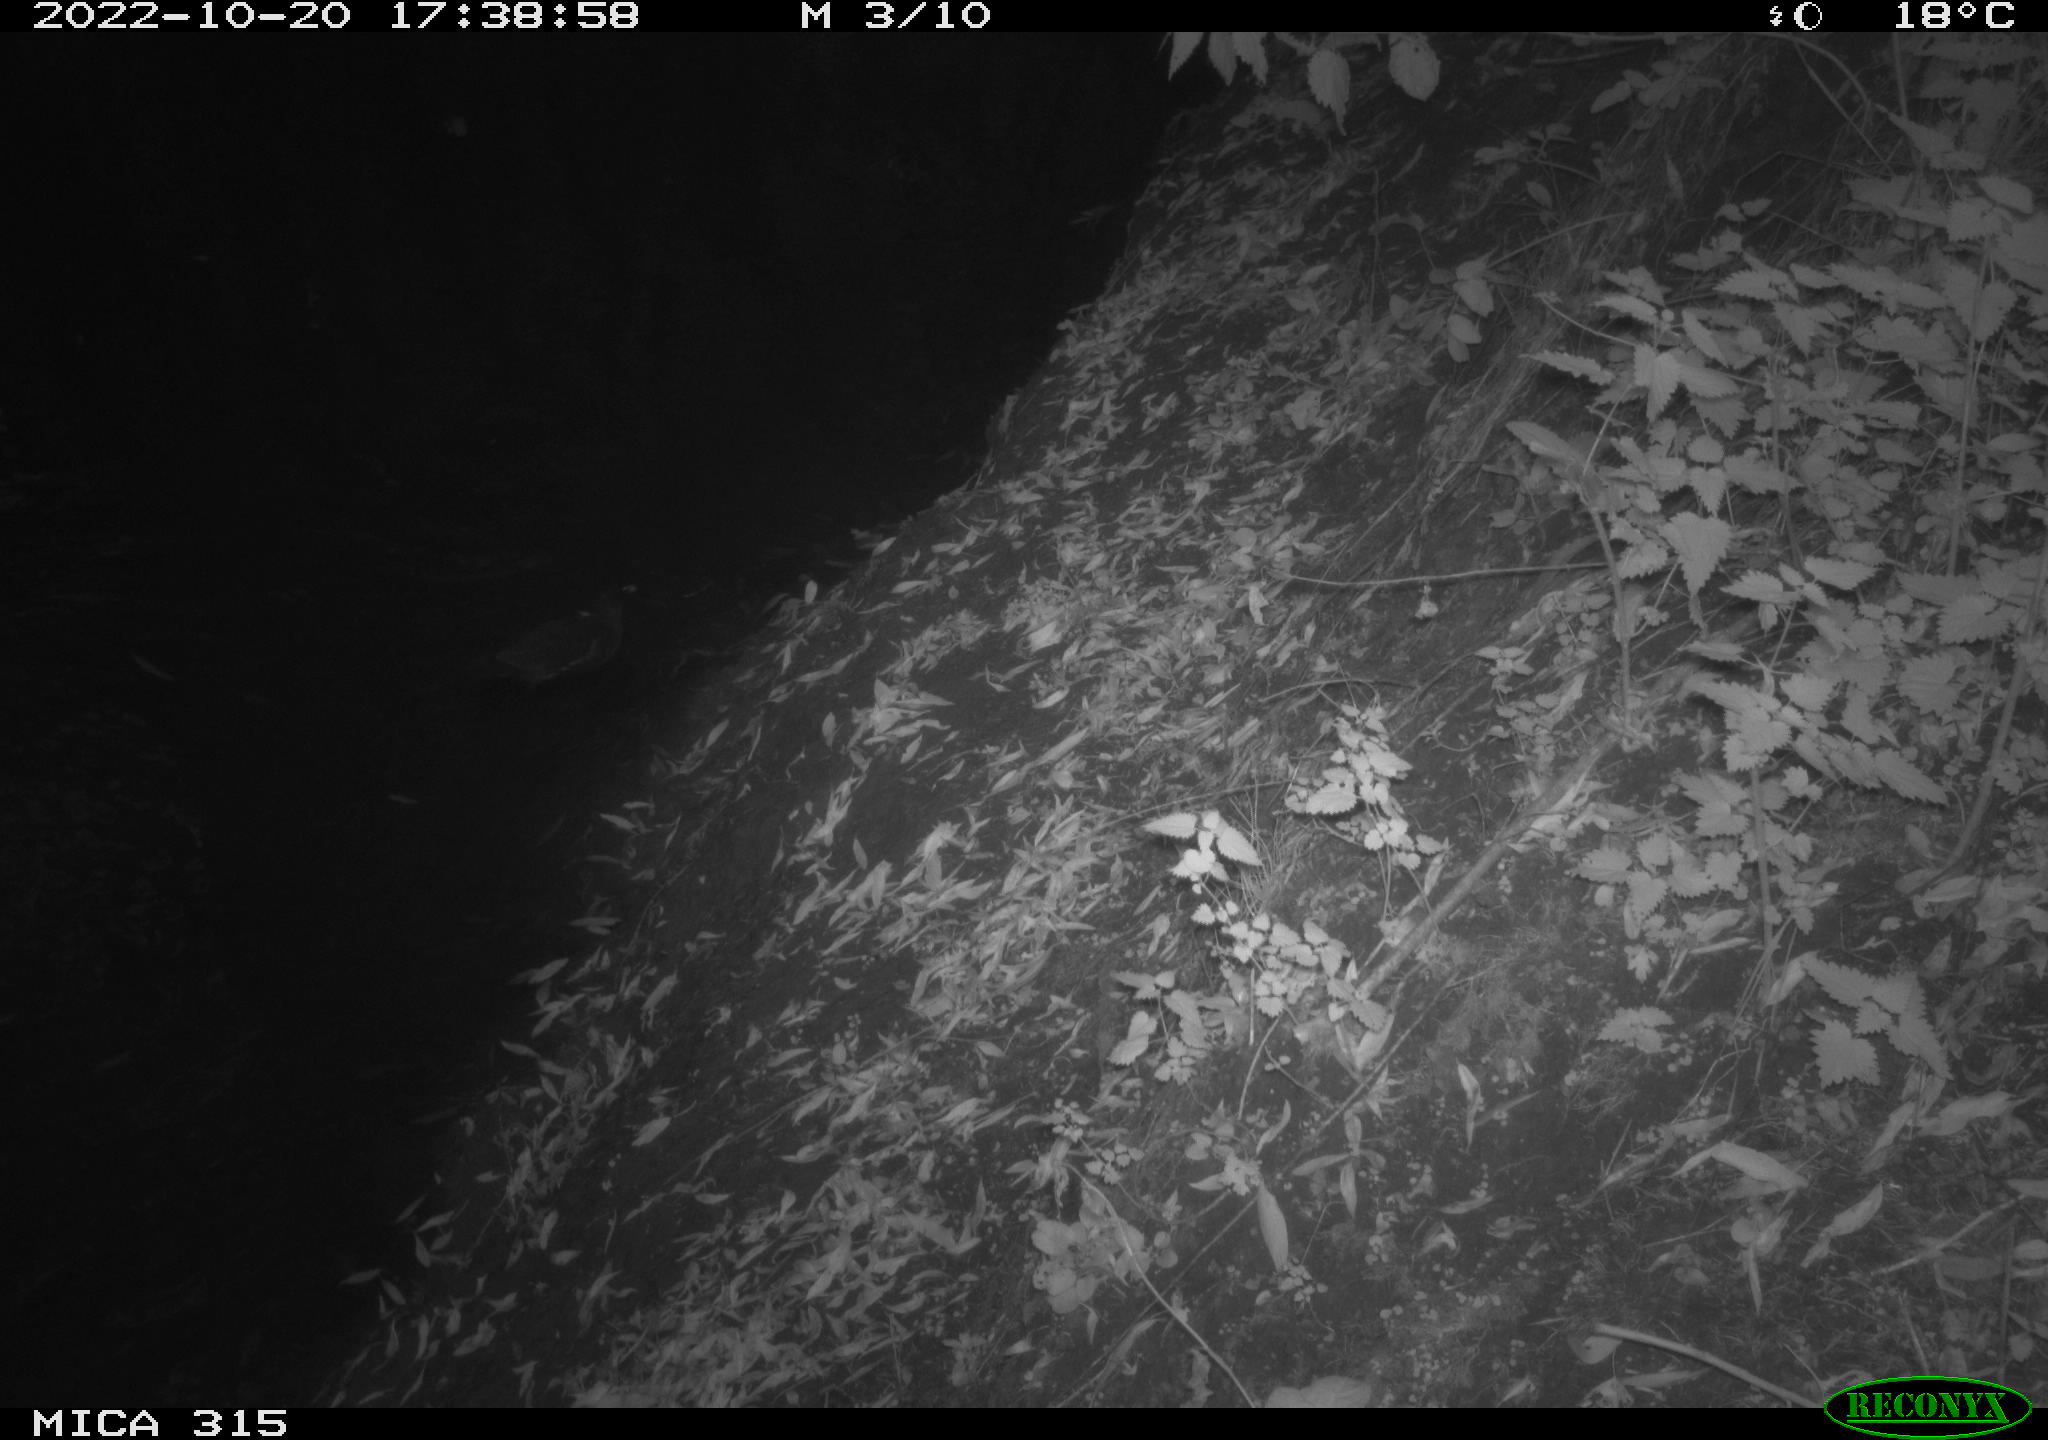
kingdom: Animalia
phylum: Chordata
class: Aves
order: Gruiformes
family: Rallidae
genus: Gallinula
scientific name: Gallinula chloropus
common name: Common moorhen
